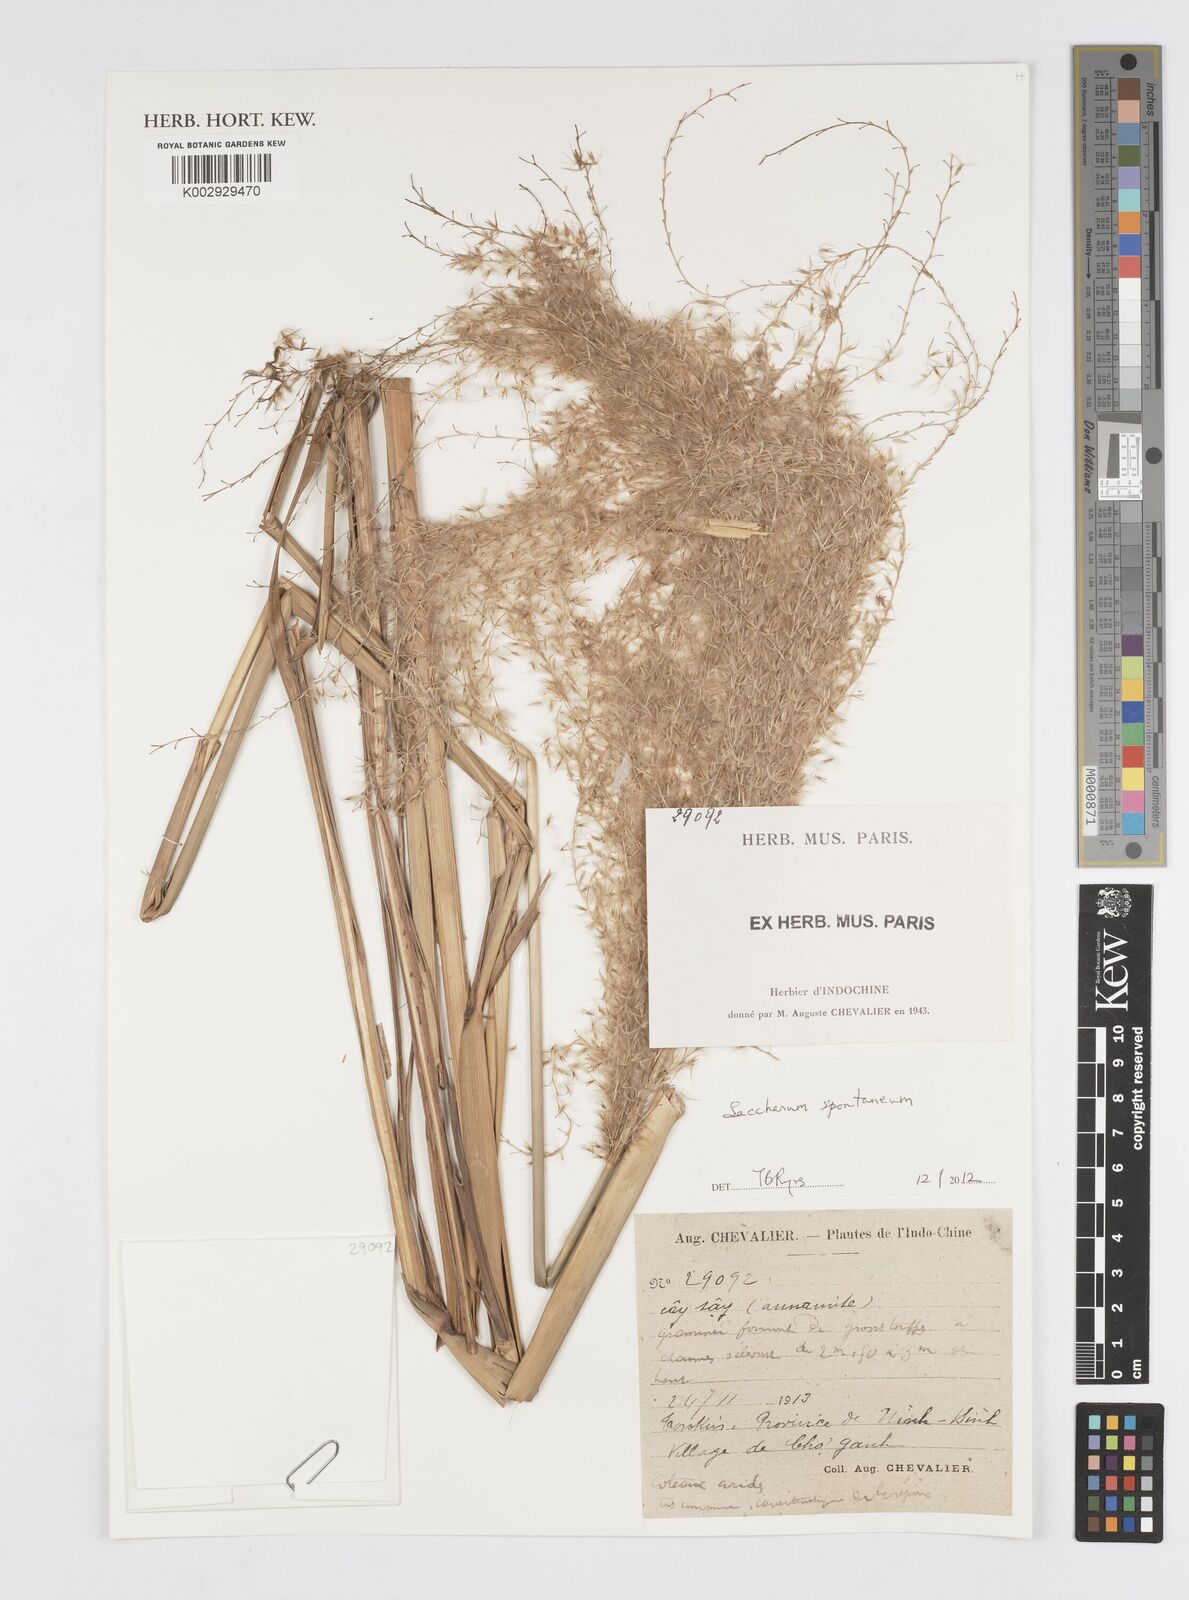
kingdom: Plantae
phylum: Tracheophyta
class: Liliopsida
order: Poales
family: Poaceae
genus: Saccharum
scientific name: Saccharum spontaneum
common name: Wild sugarcane
